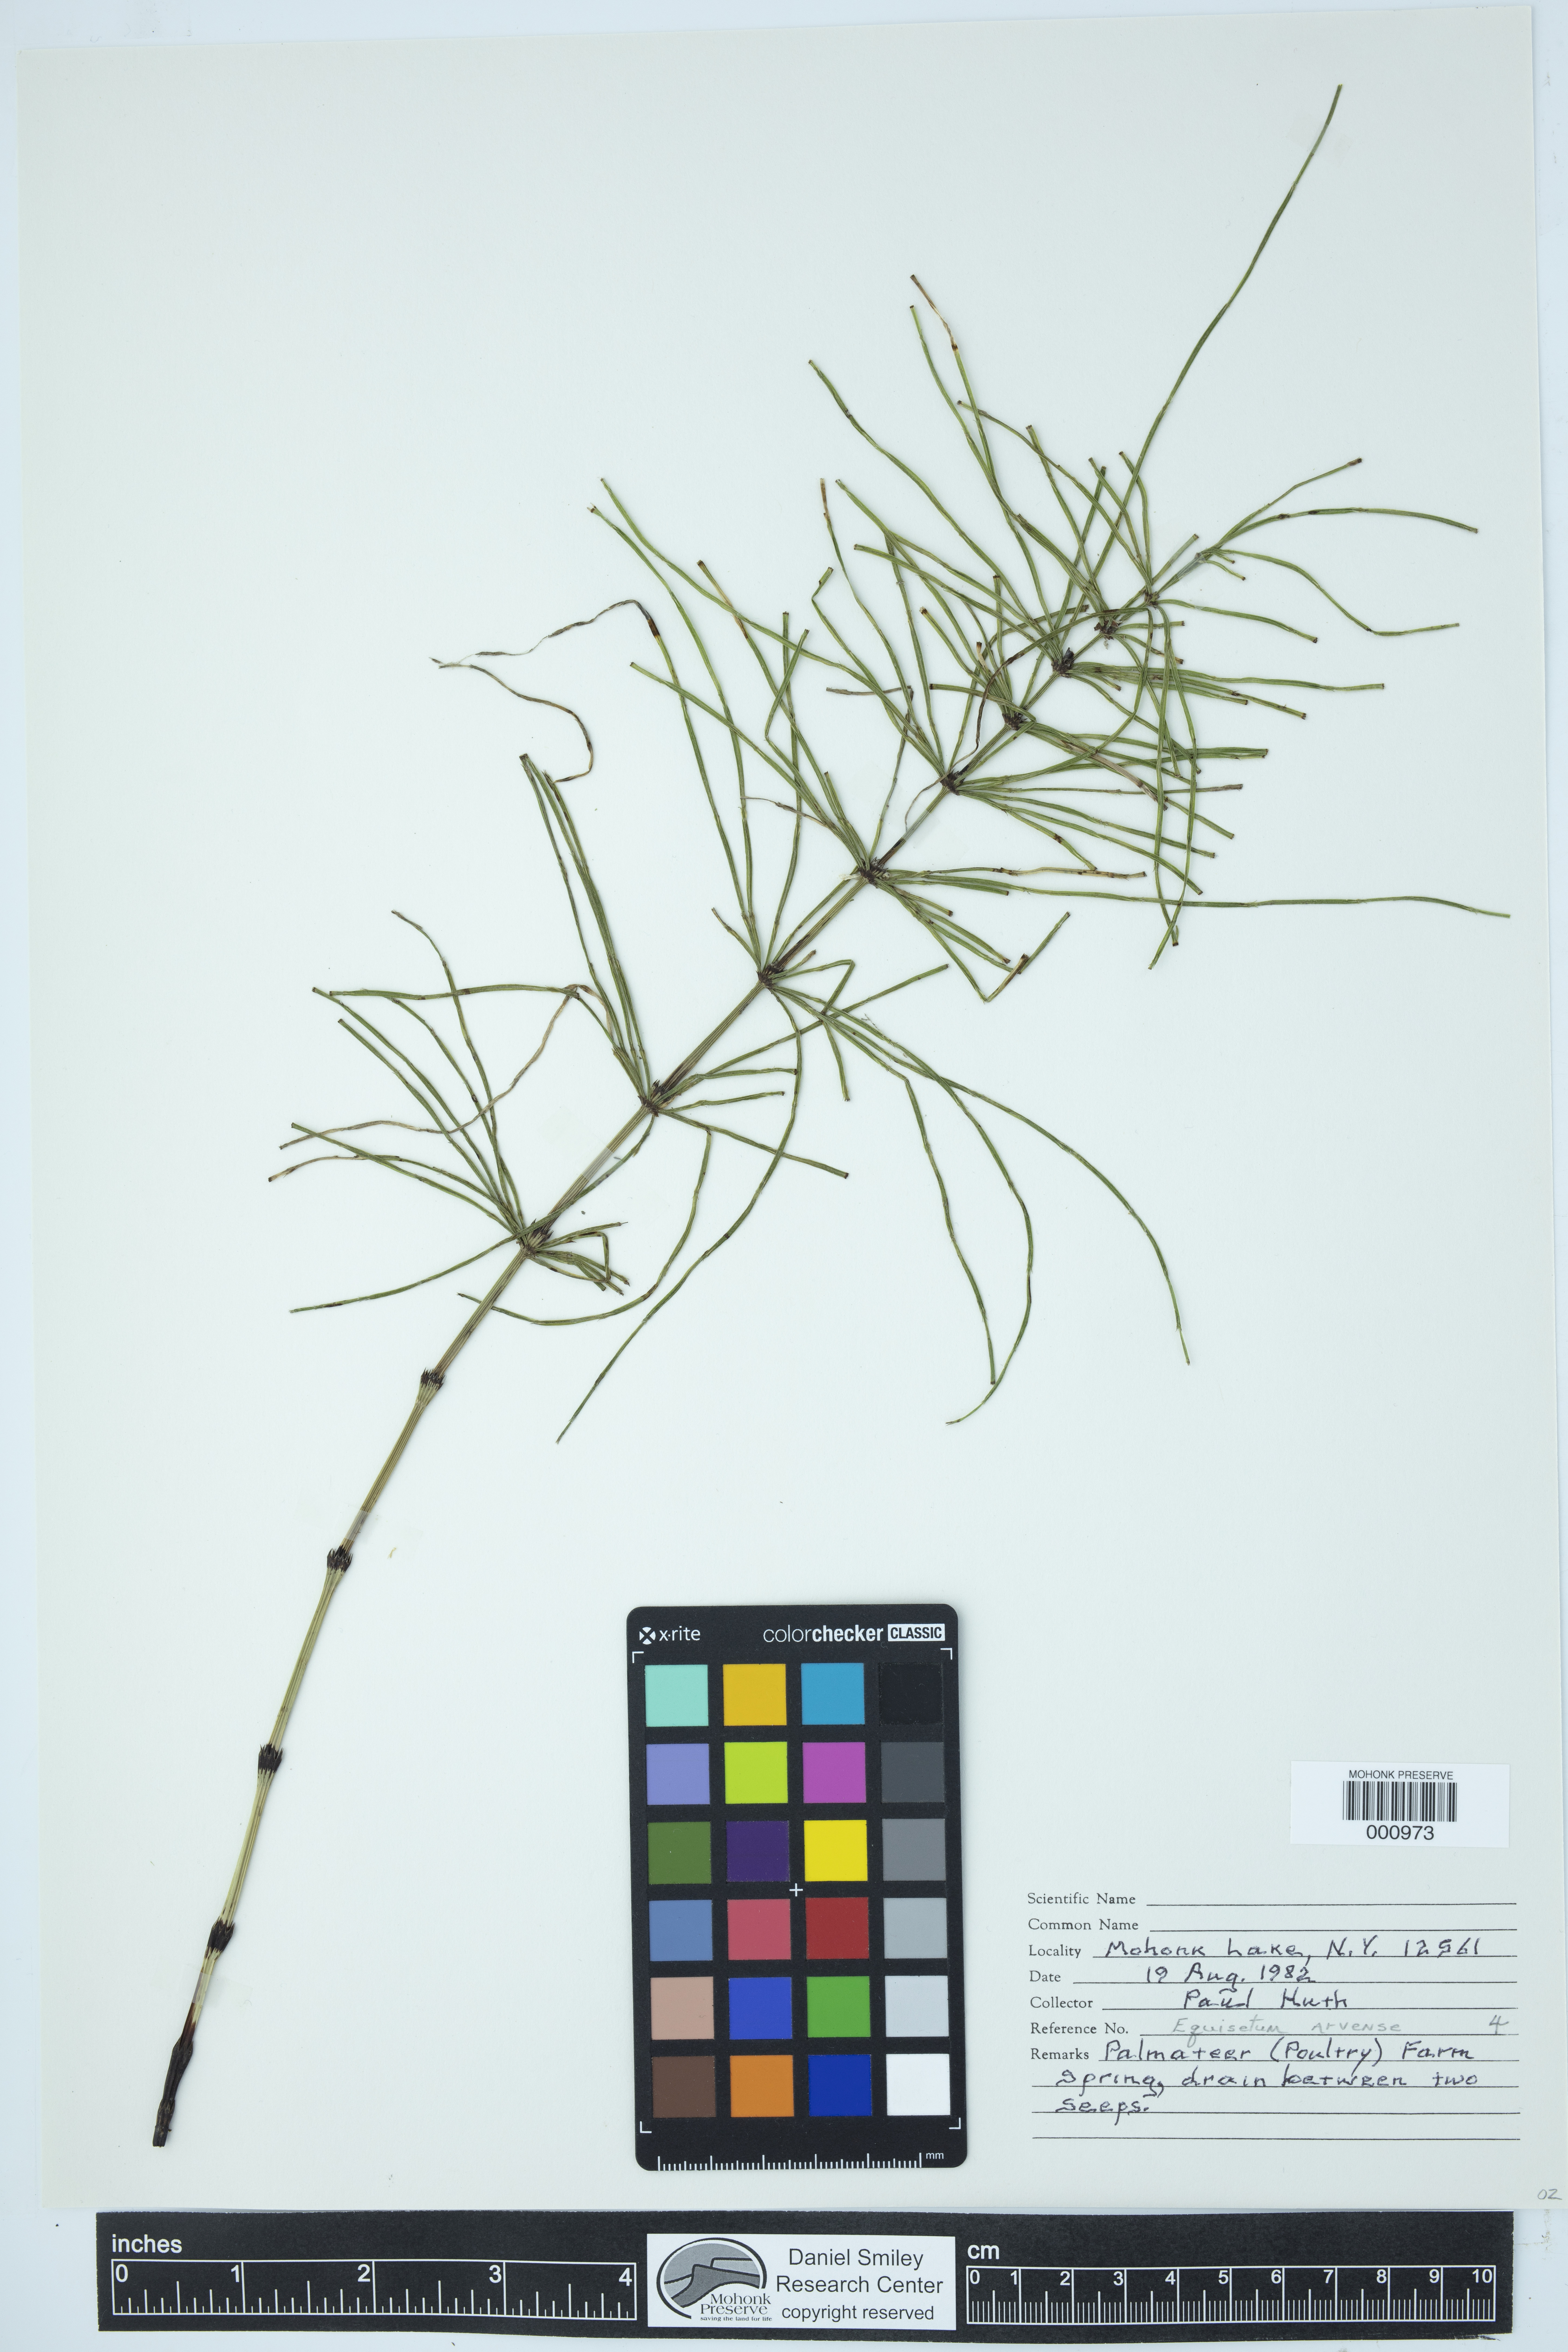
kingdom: Plantae
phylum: Tracheophyta
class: Polypodiopsida
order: Equisetales
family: Equisetaceae
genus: Equisetum
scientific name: Equisetum arvense
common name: Field horsetail
